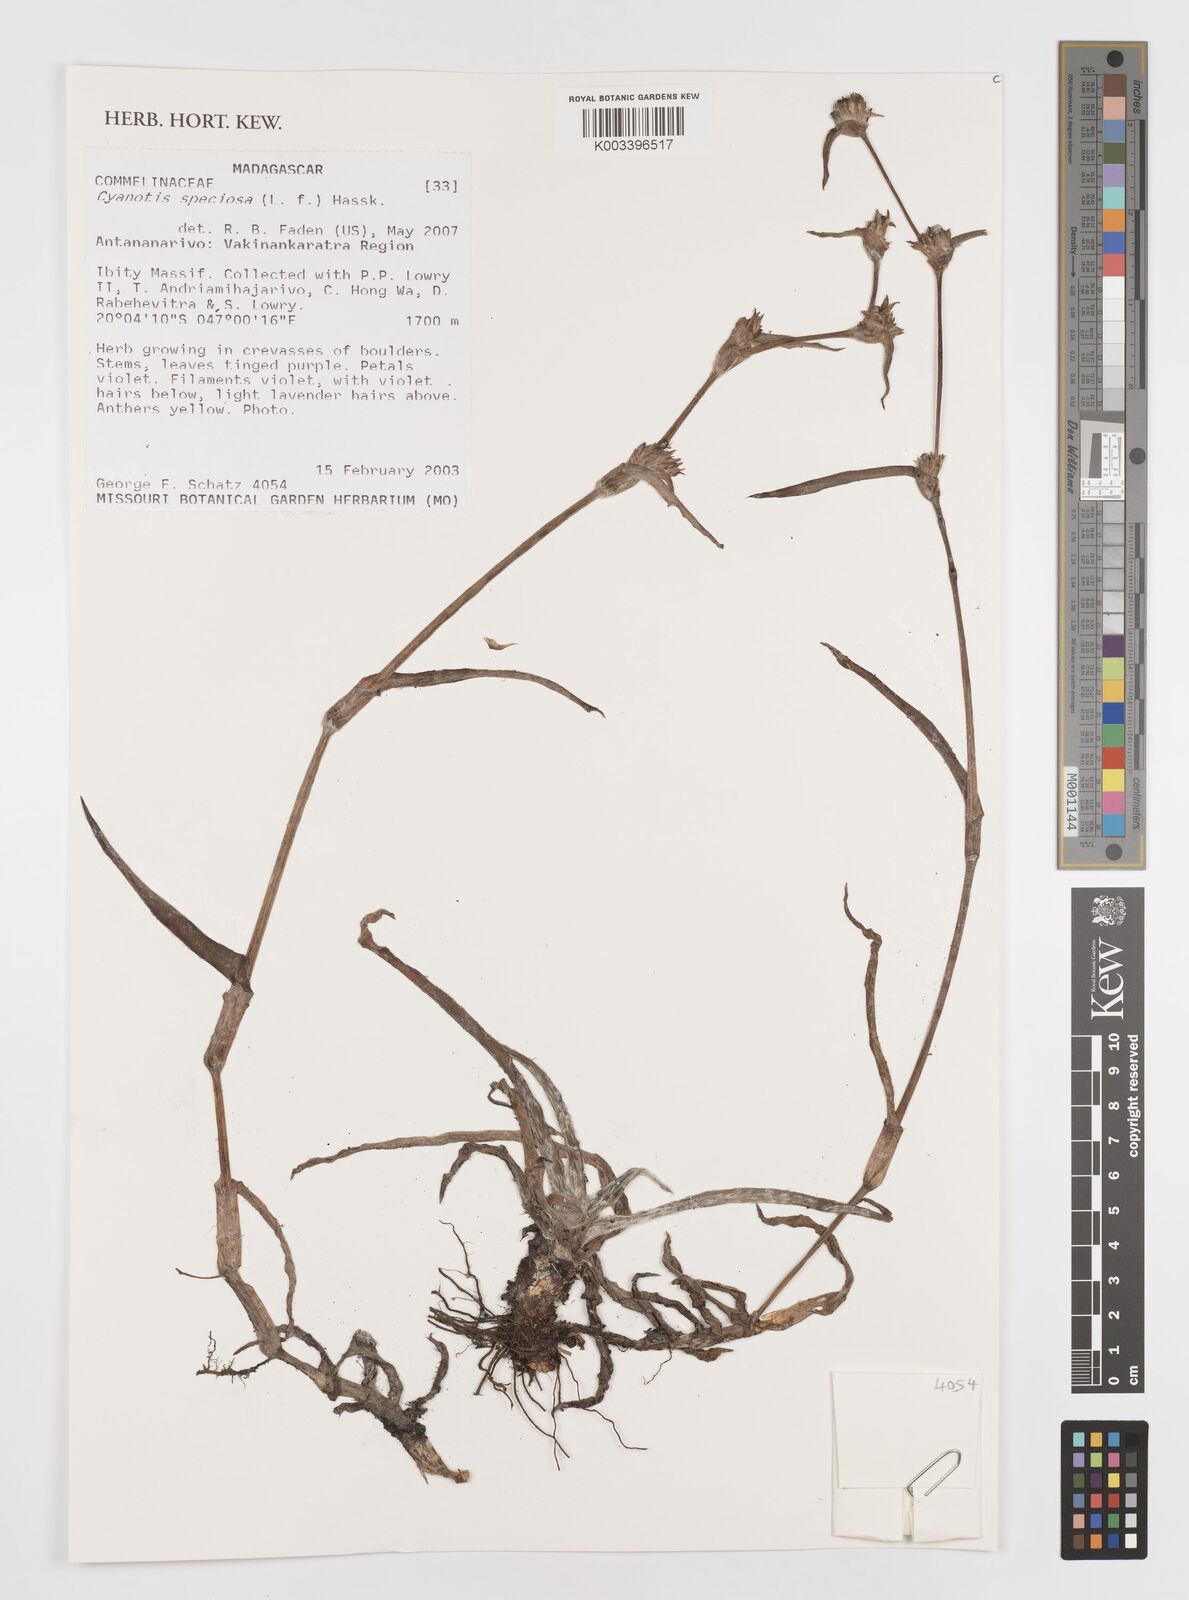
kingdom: Plantae
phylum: Tracheophyta
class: Liliopsida
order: Commelinales
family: Commelinaceae
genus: Cyanotis
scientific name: Cyanotis speciosa
